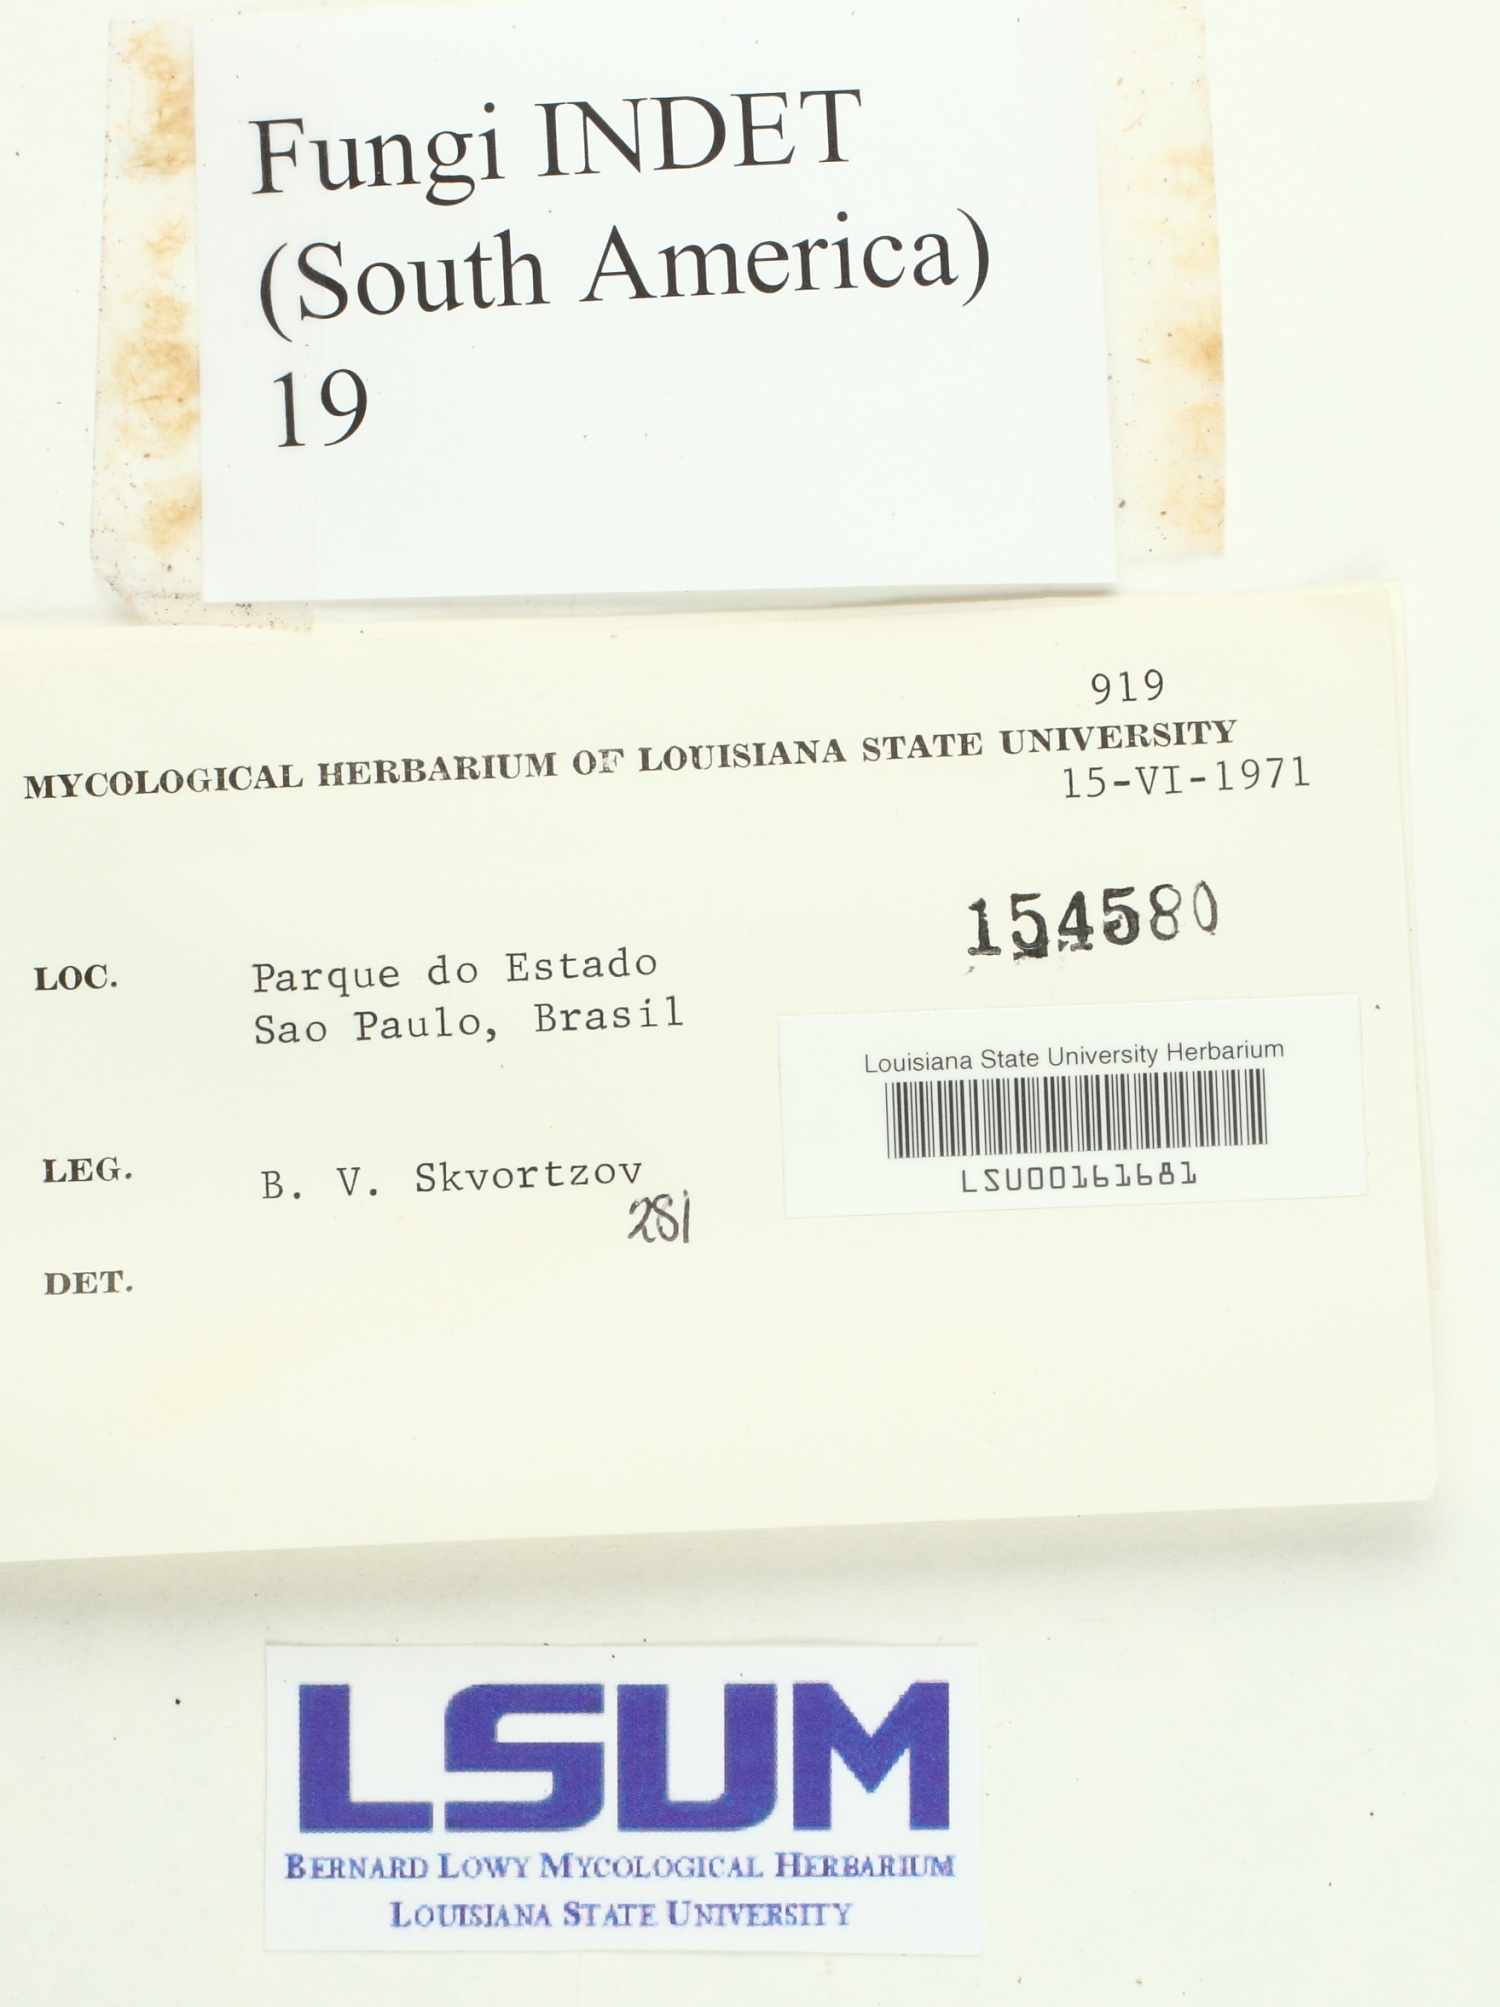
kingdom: Fungi
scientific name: Fungi
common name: Fungi
